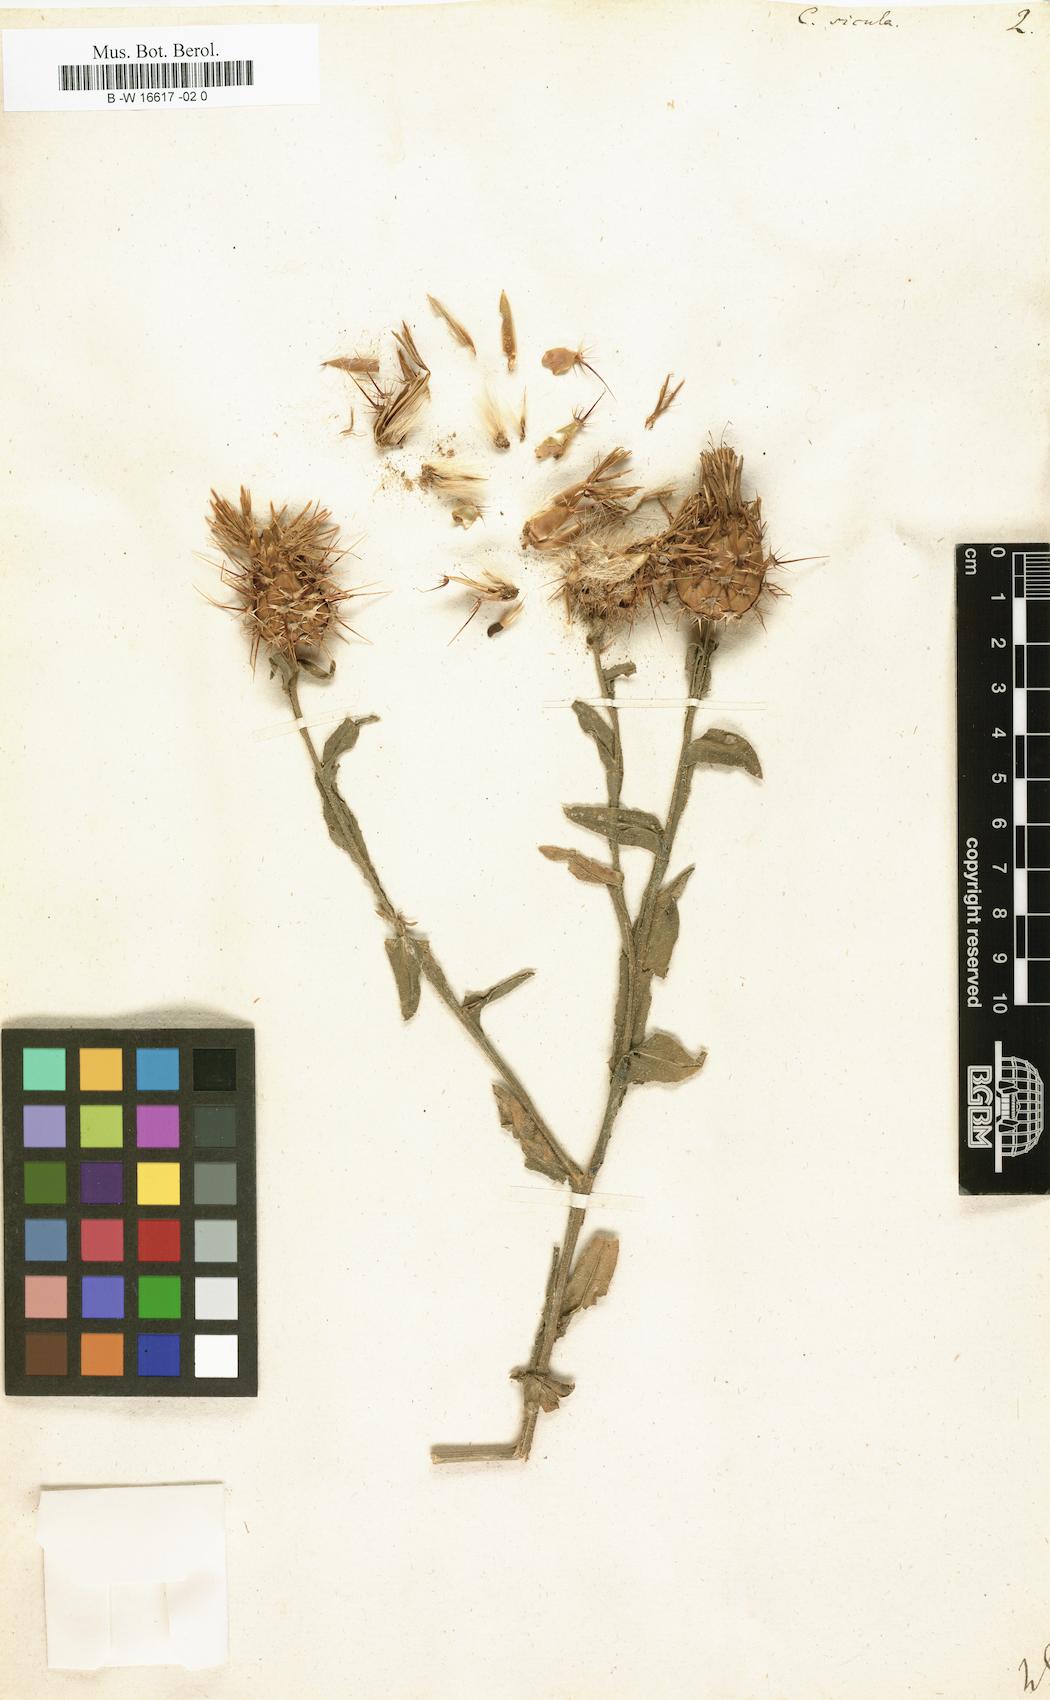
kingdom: Plantae
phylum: Tracheophyta
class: Magnoliopsida
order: Asterales
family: Asteraceae
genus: Centaurea
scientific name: Centaurea sicula
